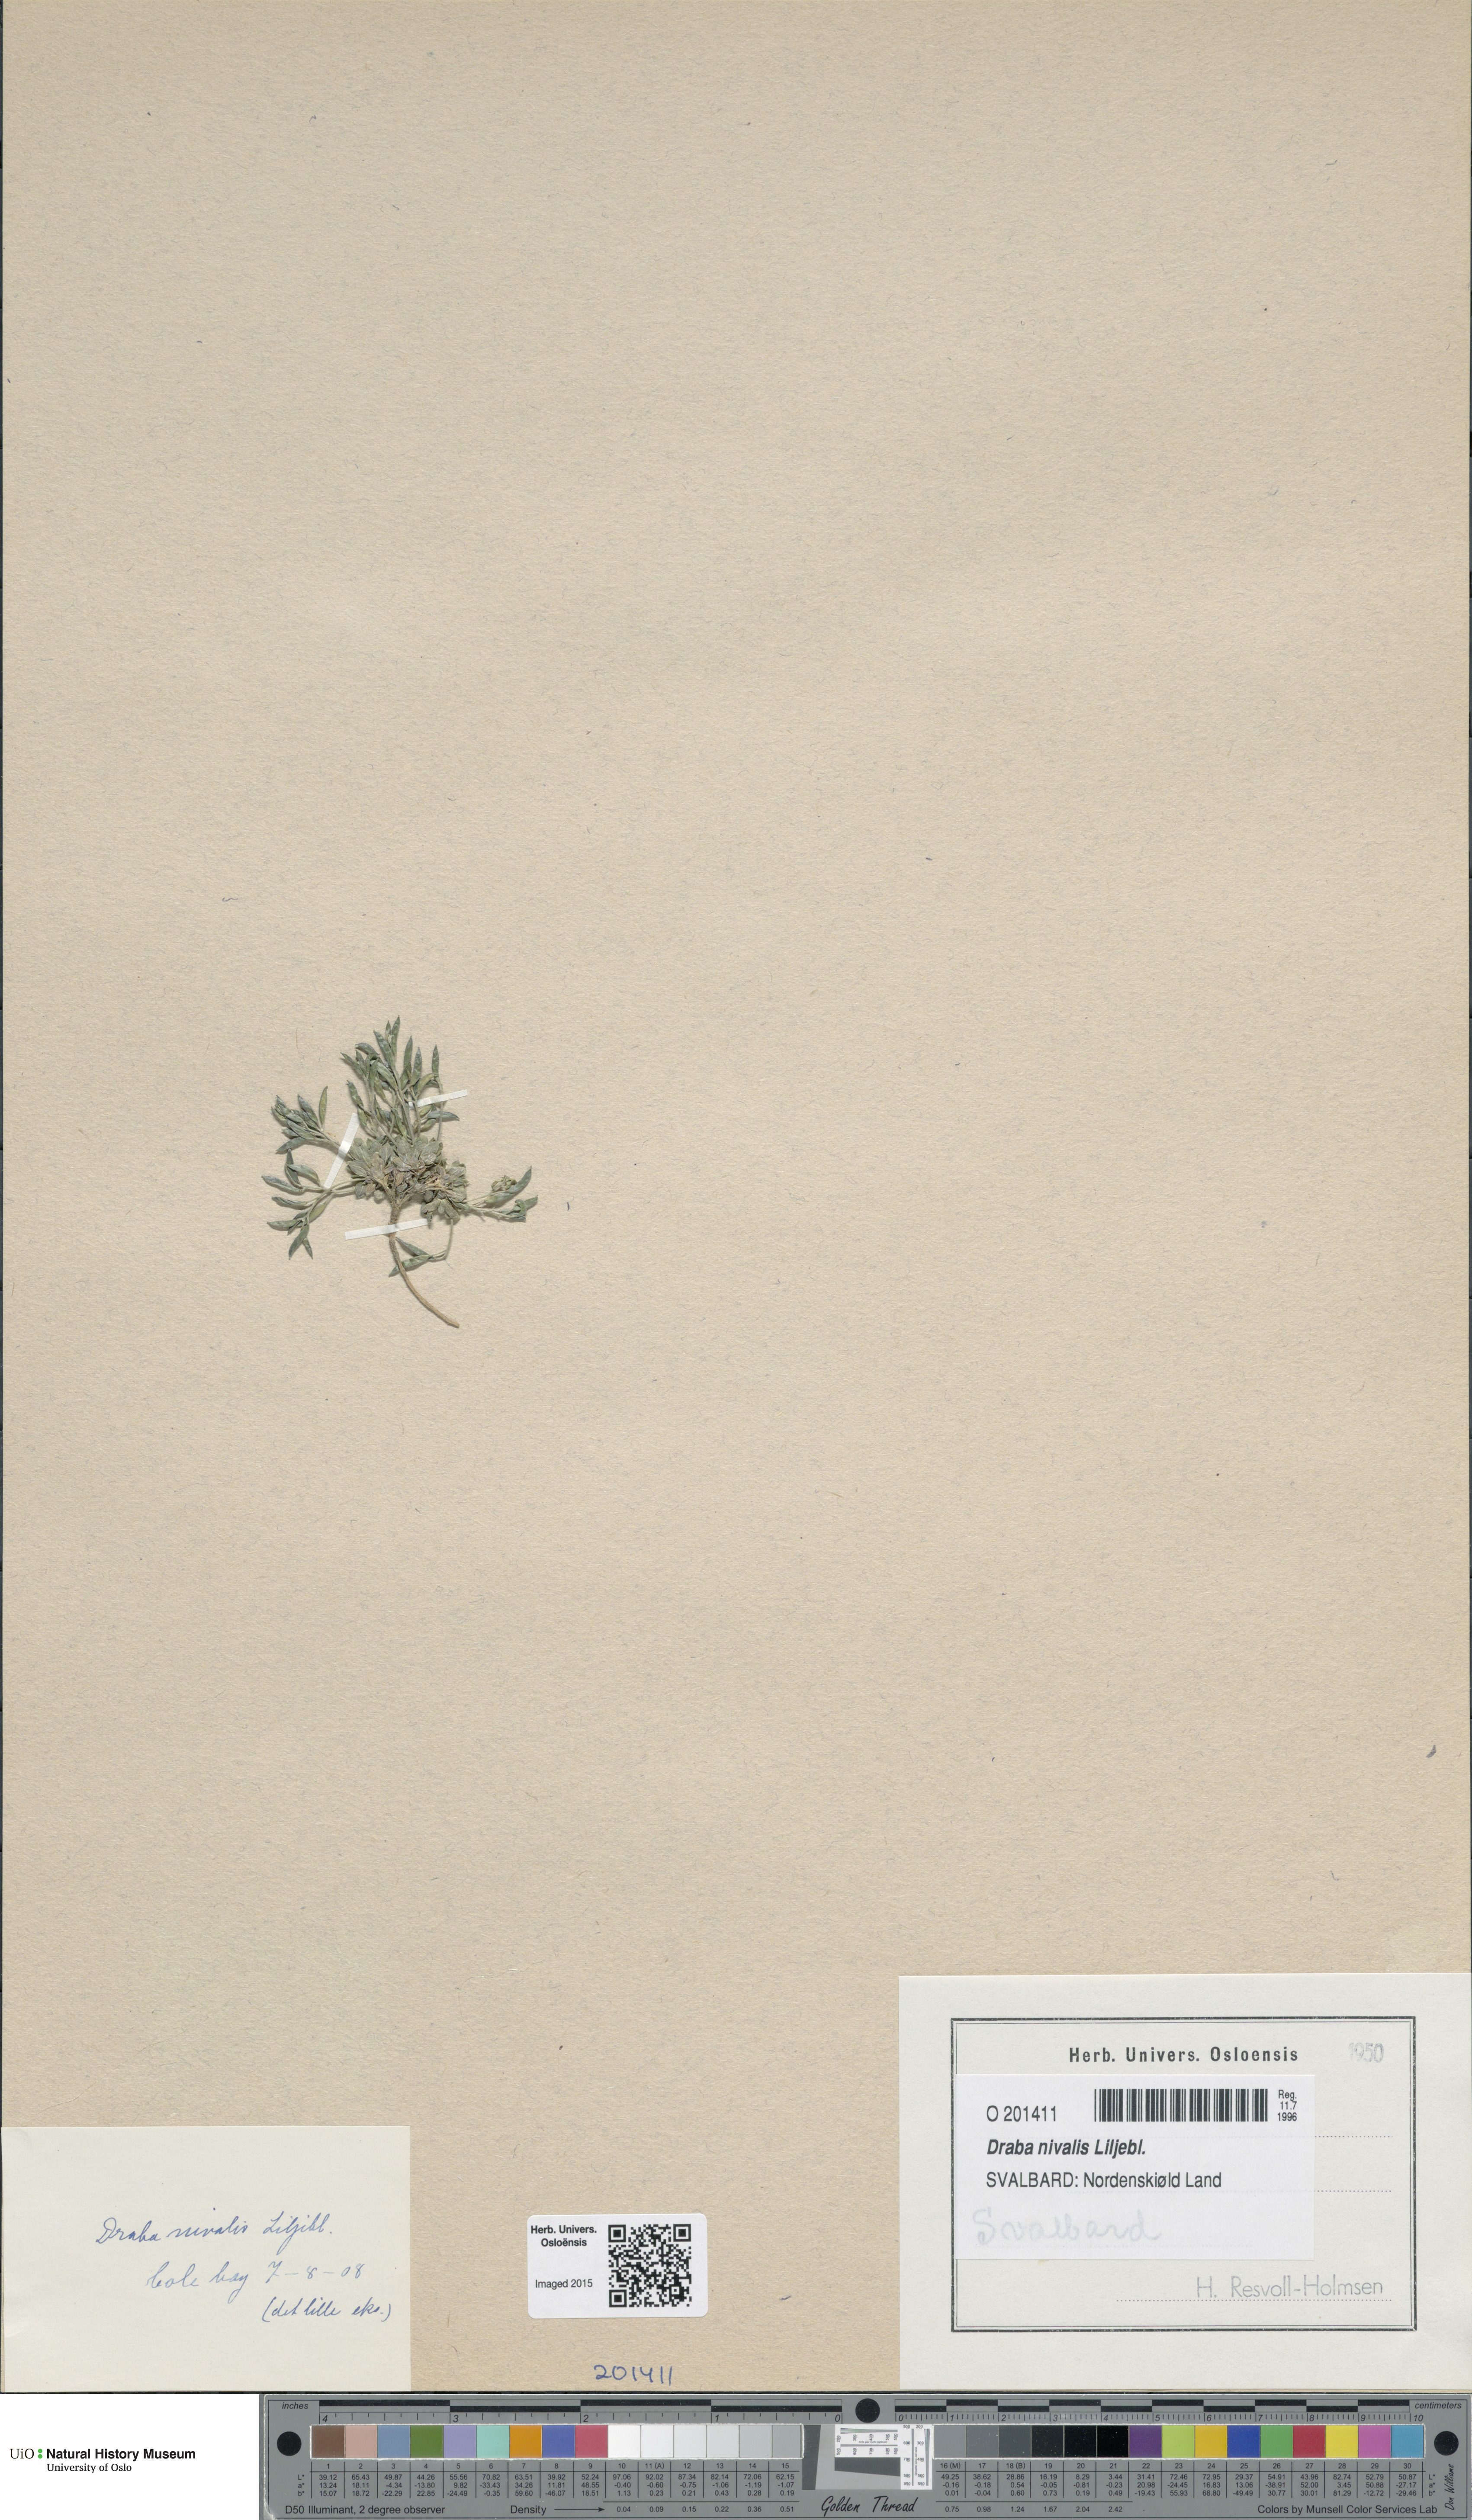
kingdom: Plantae
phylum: Tracheophyta
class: Magnoliopsida
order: Brassicales
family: Brassicaceae
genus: Draba
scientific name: Draba nivalis
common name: Snow draba
